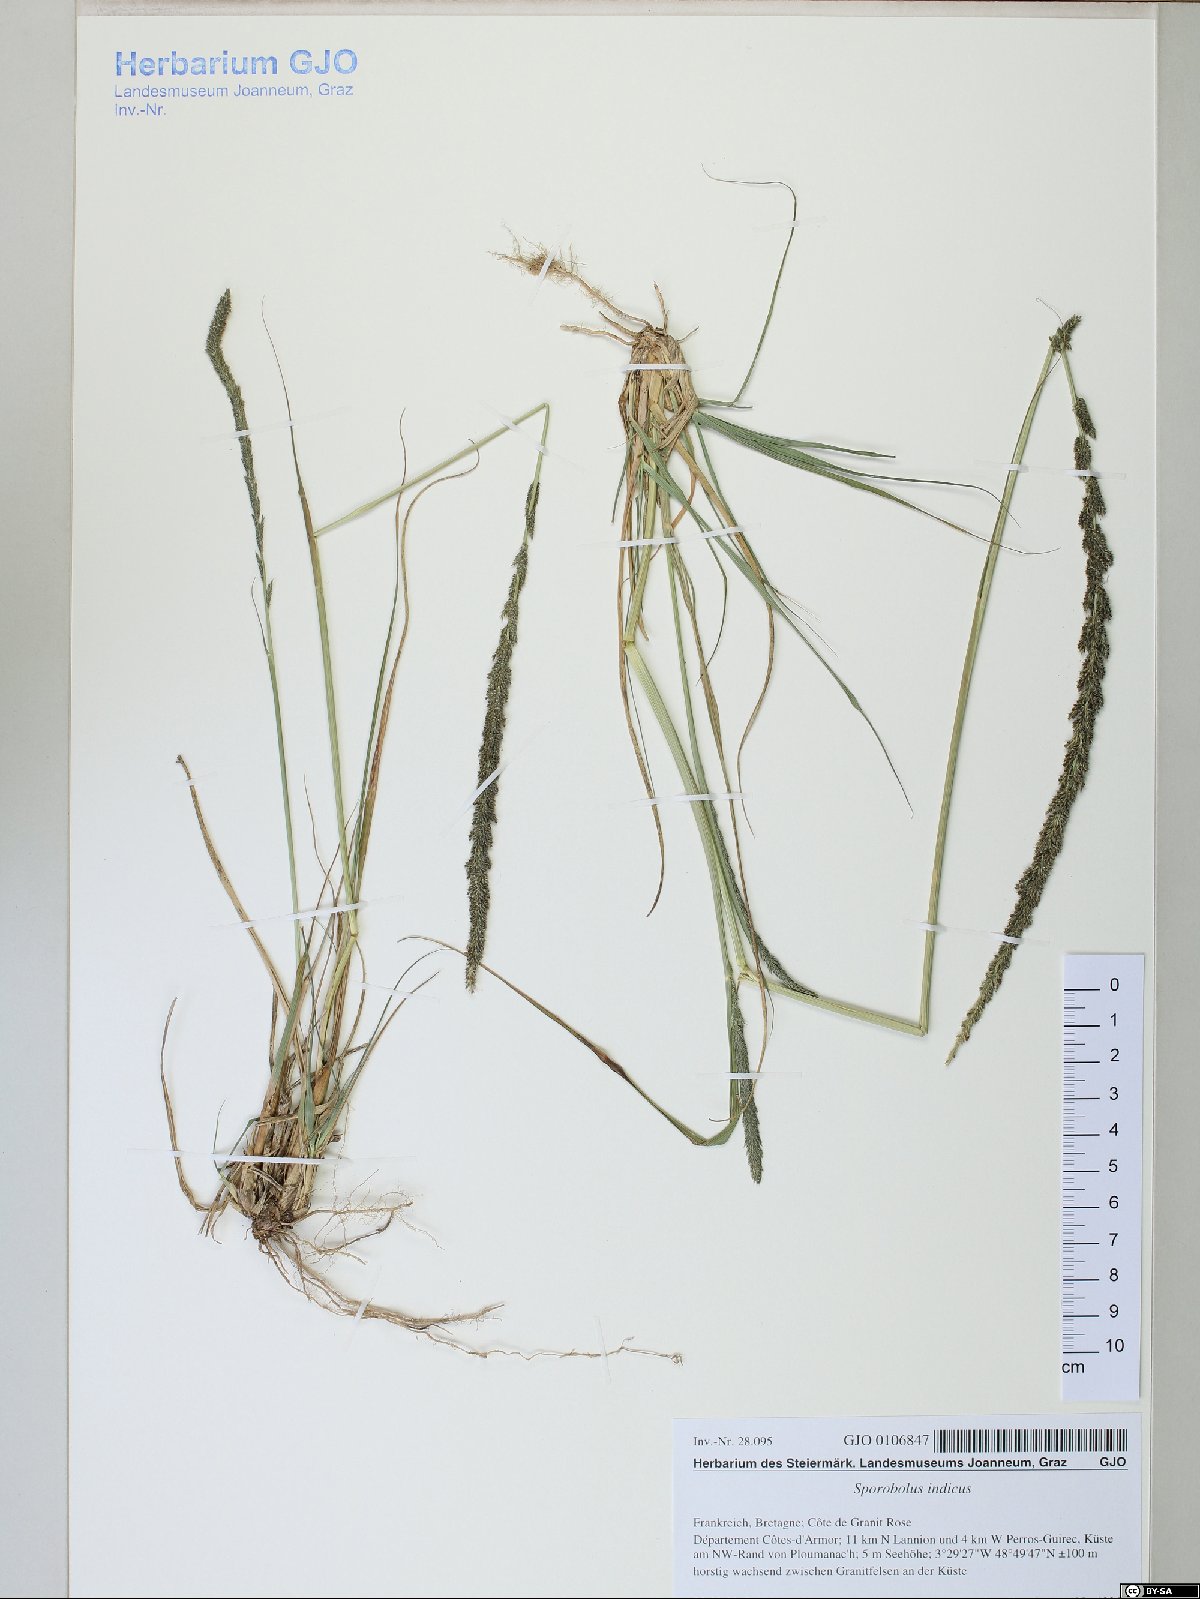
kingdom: Plantae
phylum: Tracheophyta
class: Liliopsida
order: Poales
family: Poaceae
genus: Sporobolus
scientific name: Sporobolus indicus
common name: Smut grass
